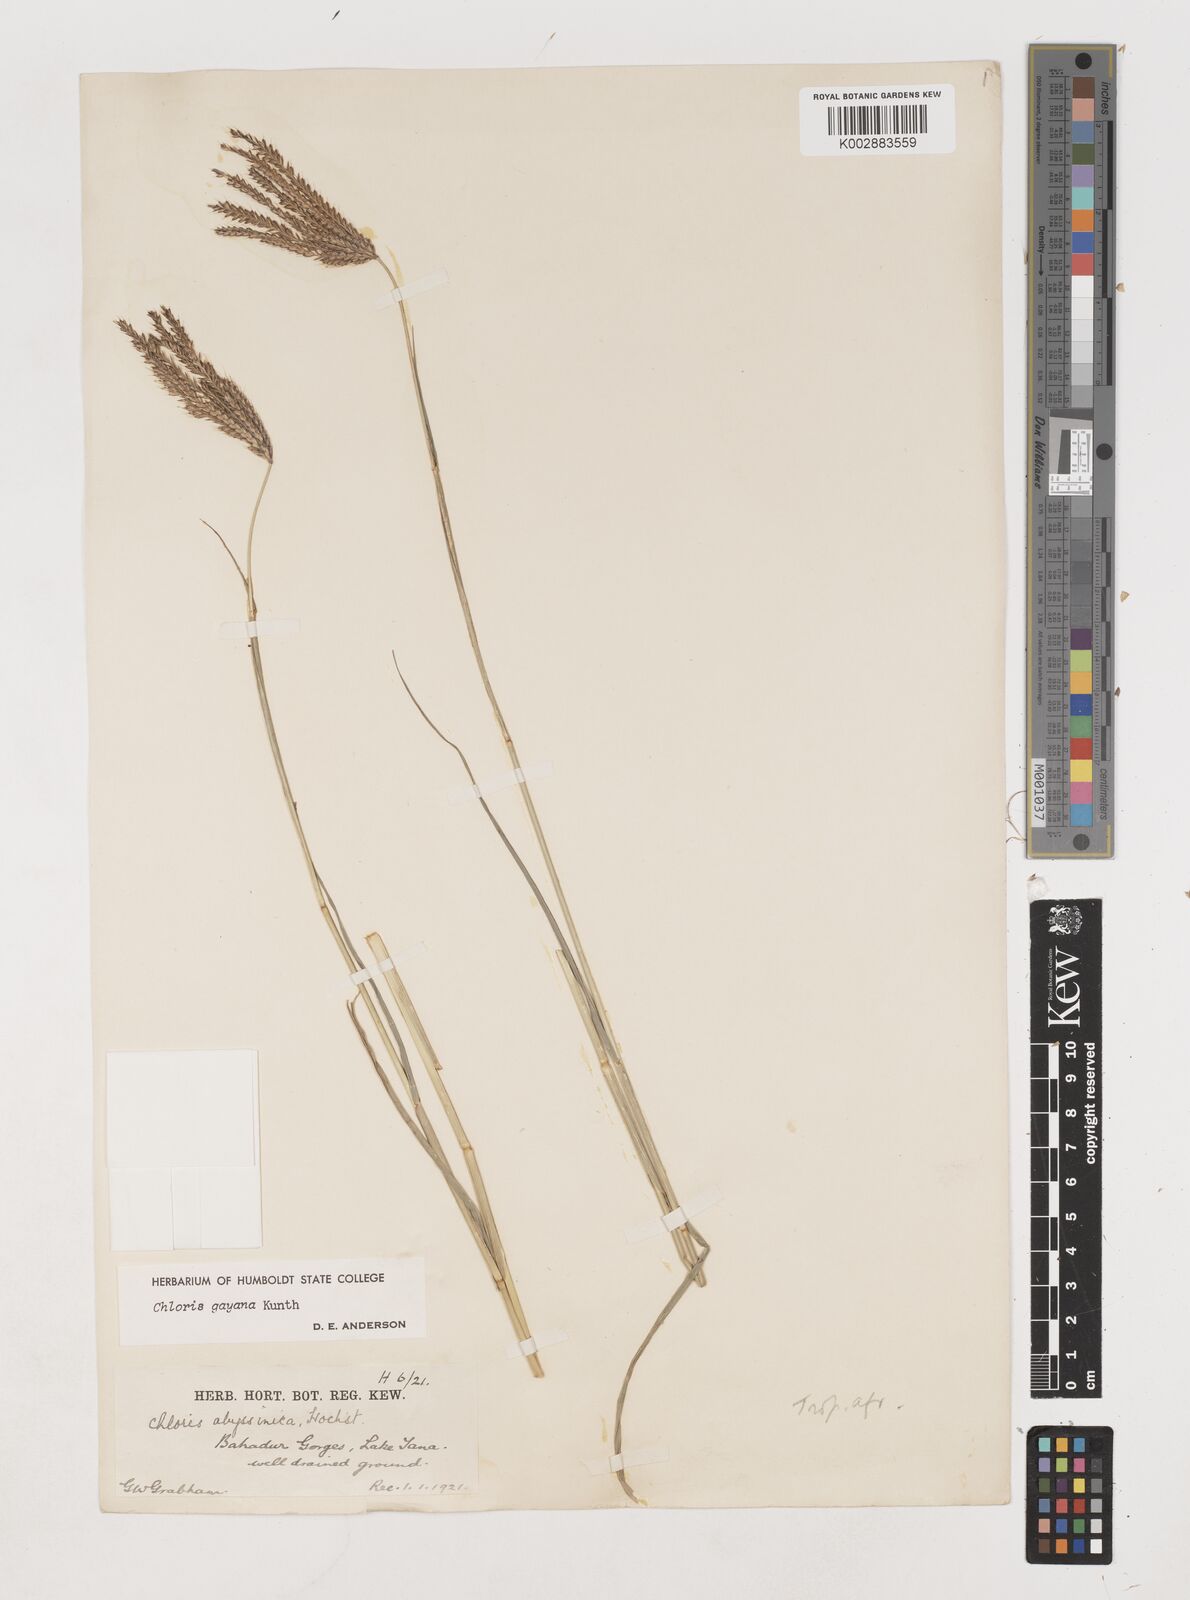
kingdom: Plantae
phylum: Tracheophyta
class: Liliopsida
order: Poales
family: Poaceae
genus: Chloris
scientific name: Chloris gayana
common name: Rhodes grass
